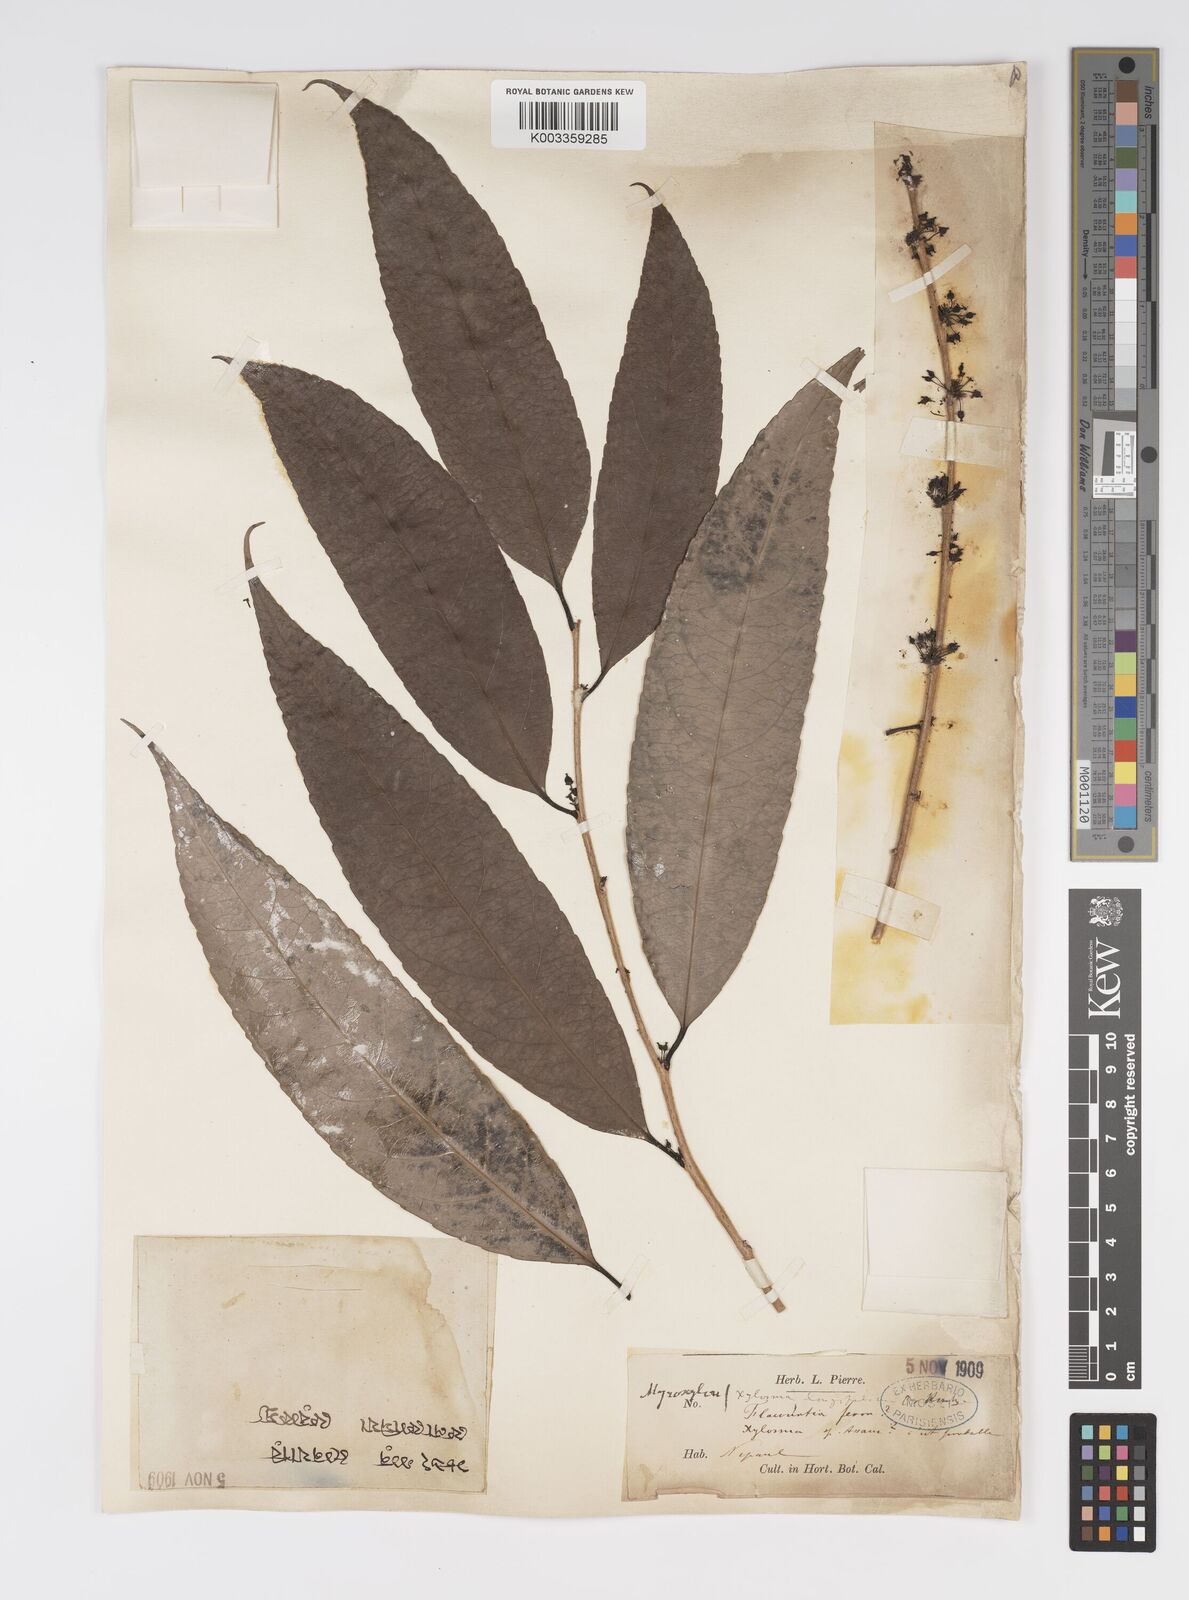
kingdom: Plantae
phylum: Tracheophyta
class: Magnoliopsida
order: Malpighiales
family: Salicaceae
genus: Xylosma
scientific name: Xylosma longifolia
